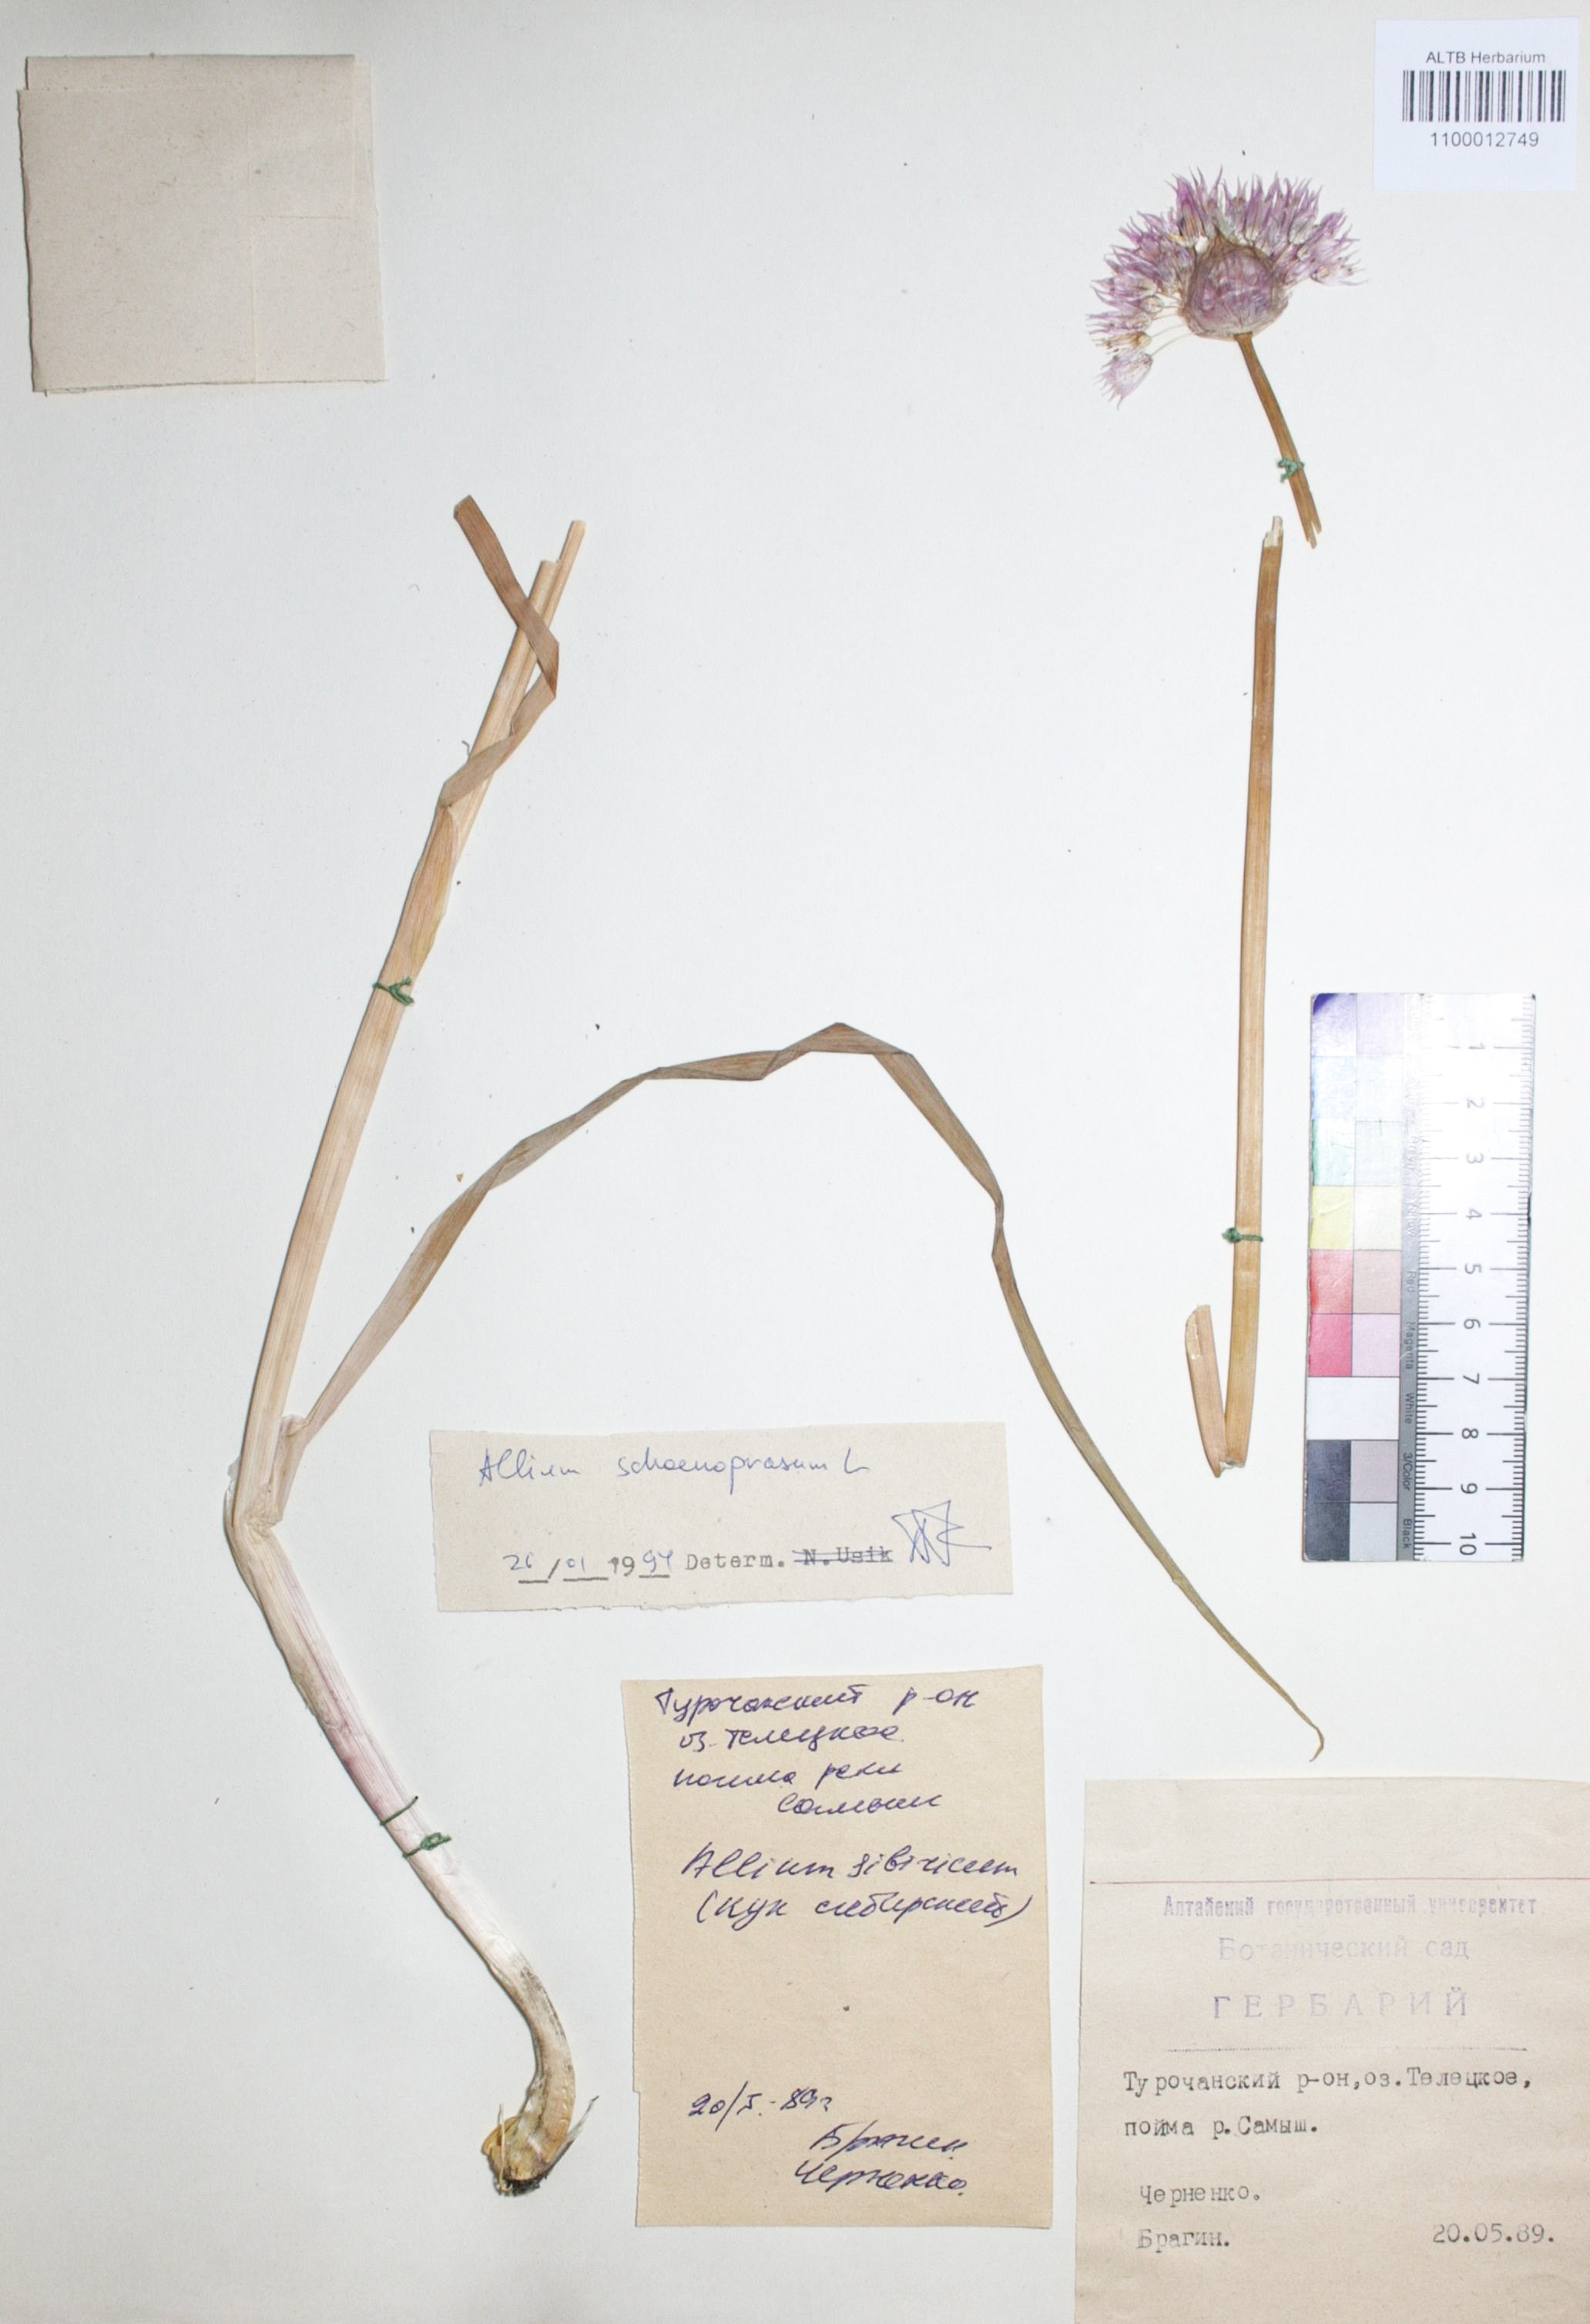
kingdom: Plantae
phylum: Tracheophyta
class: Liliopsida
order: Asparagales
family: Amaryllidaceae
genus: Allium
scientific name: Allium schoenoprasum
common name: Chives
